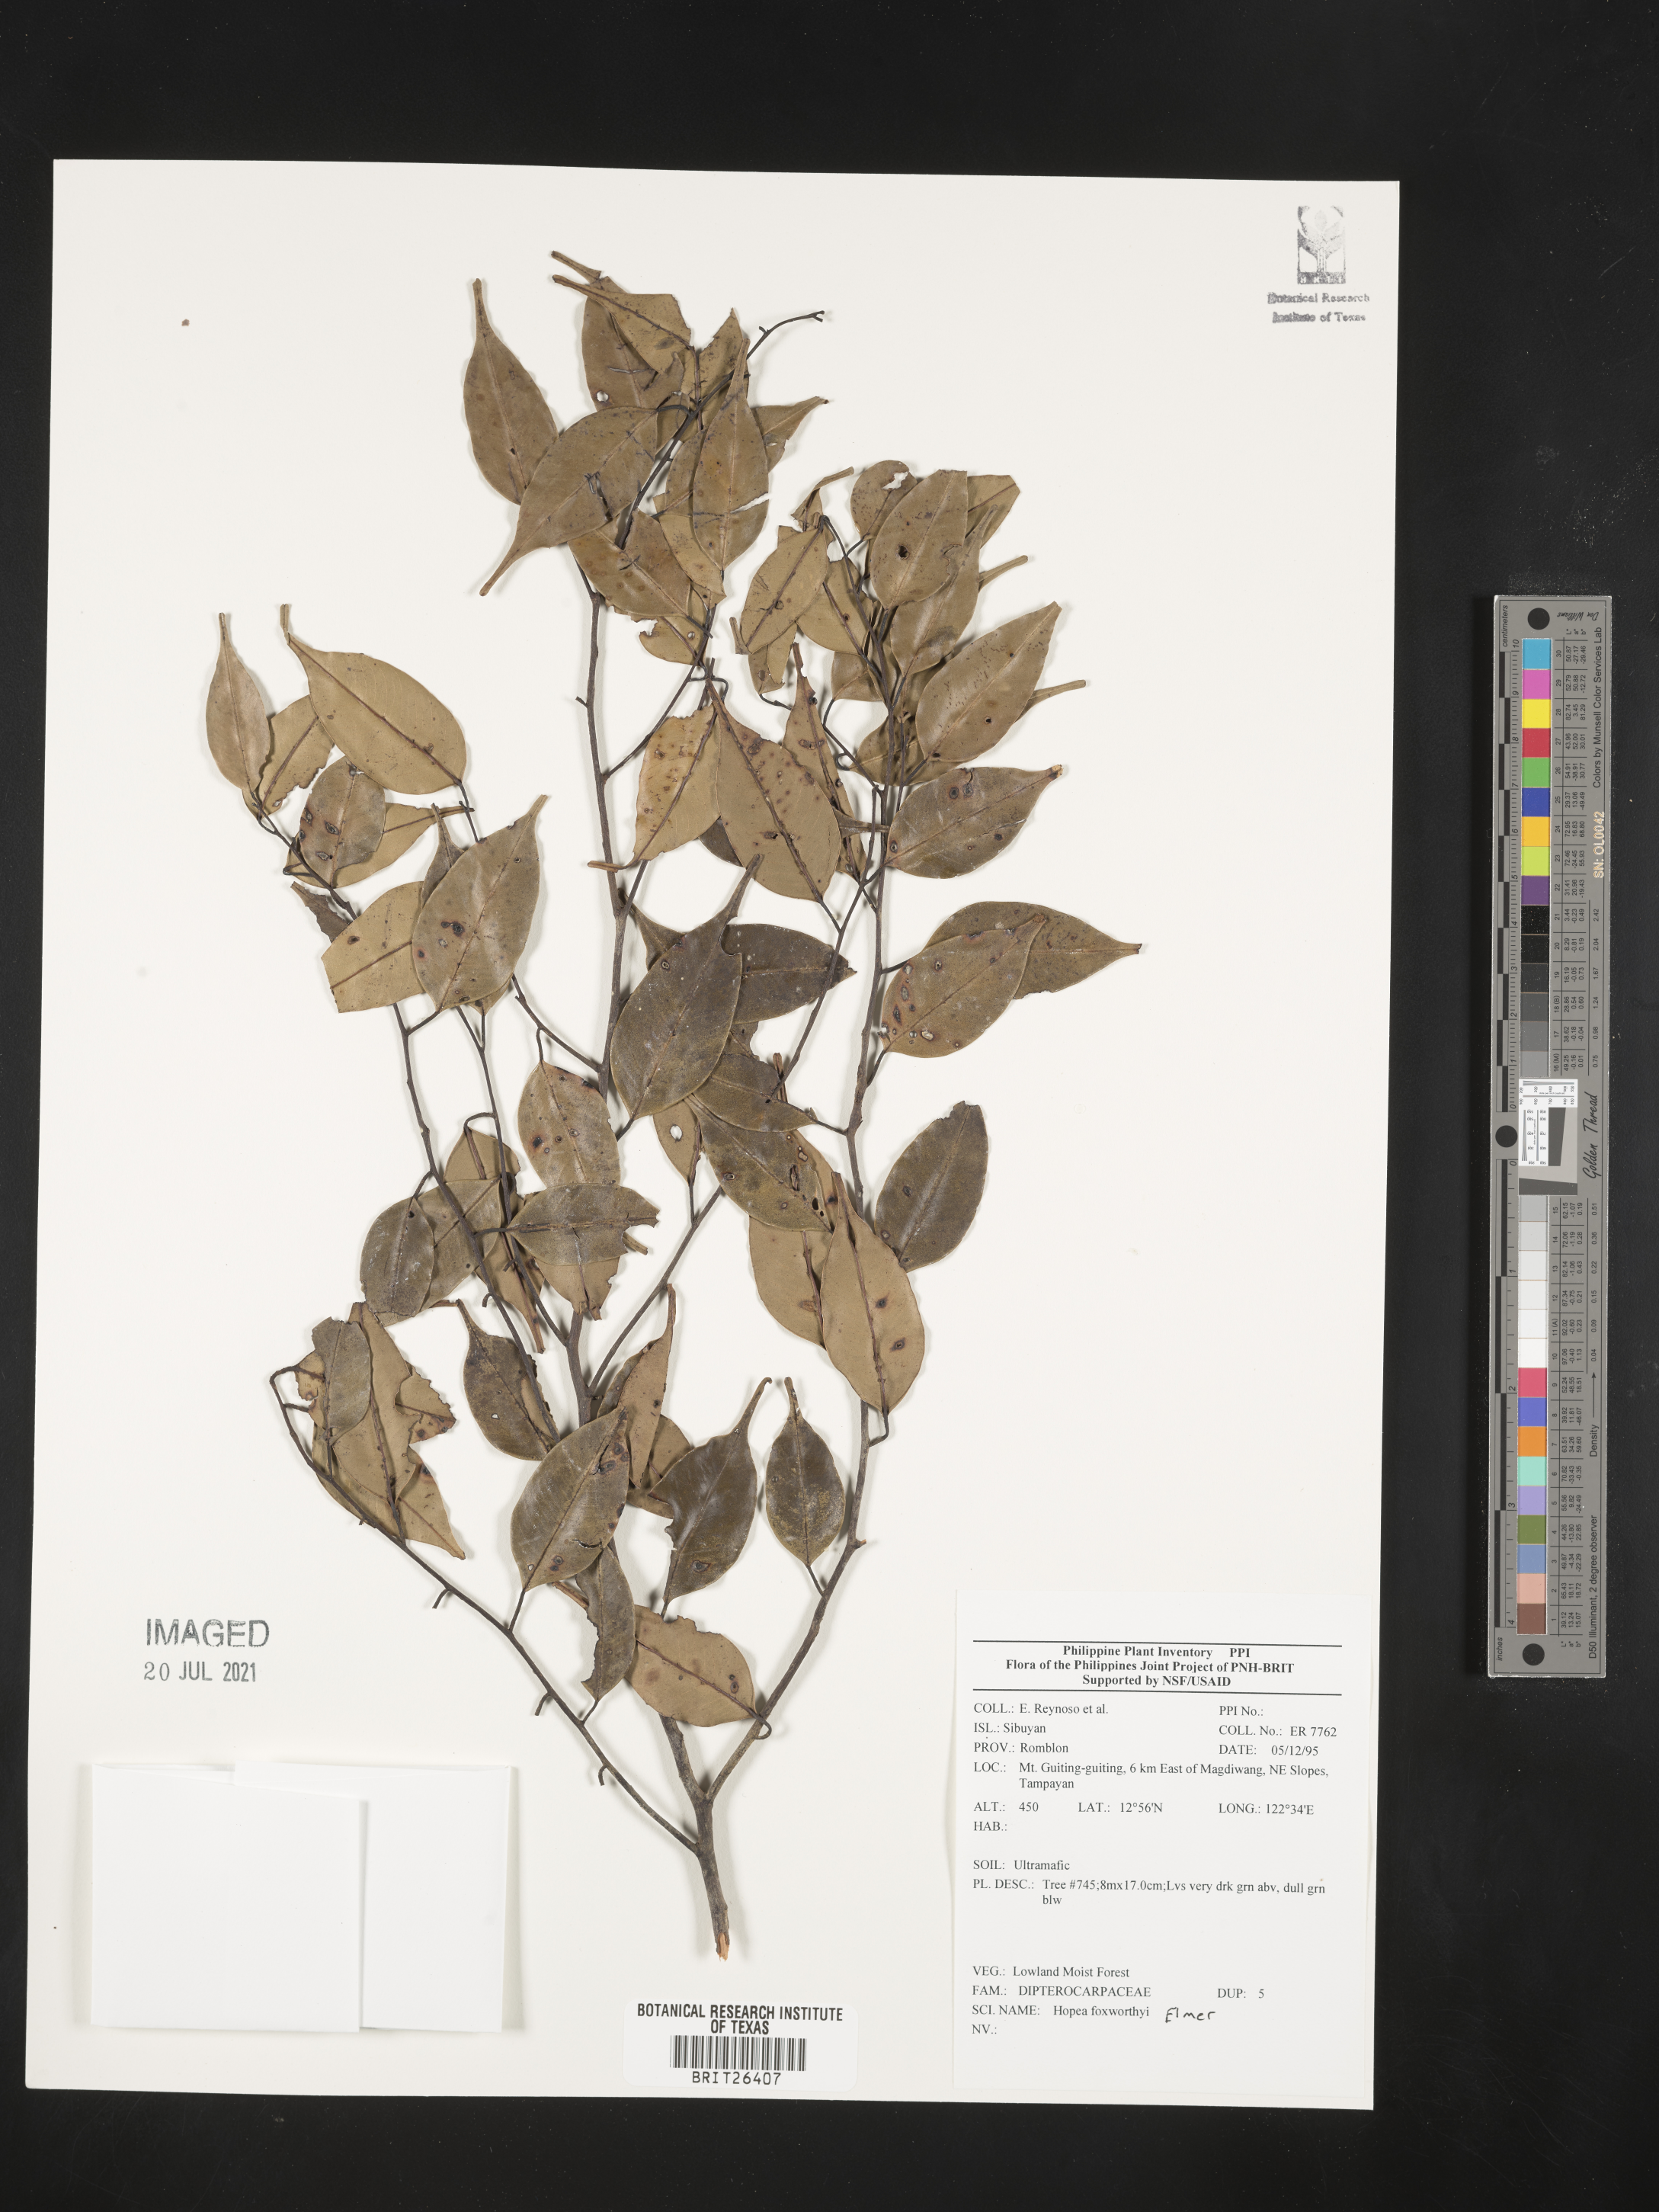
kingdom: Plantae
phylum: Tracheophyta
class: Magnoliopsida
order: Malvales
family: Dipterocarpaceae
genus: Hopea
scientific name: Hopea foxworthyi
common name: Dalingdingan
